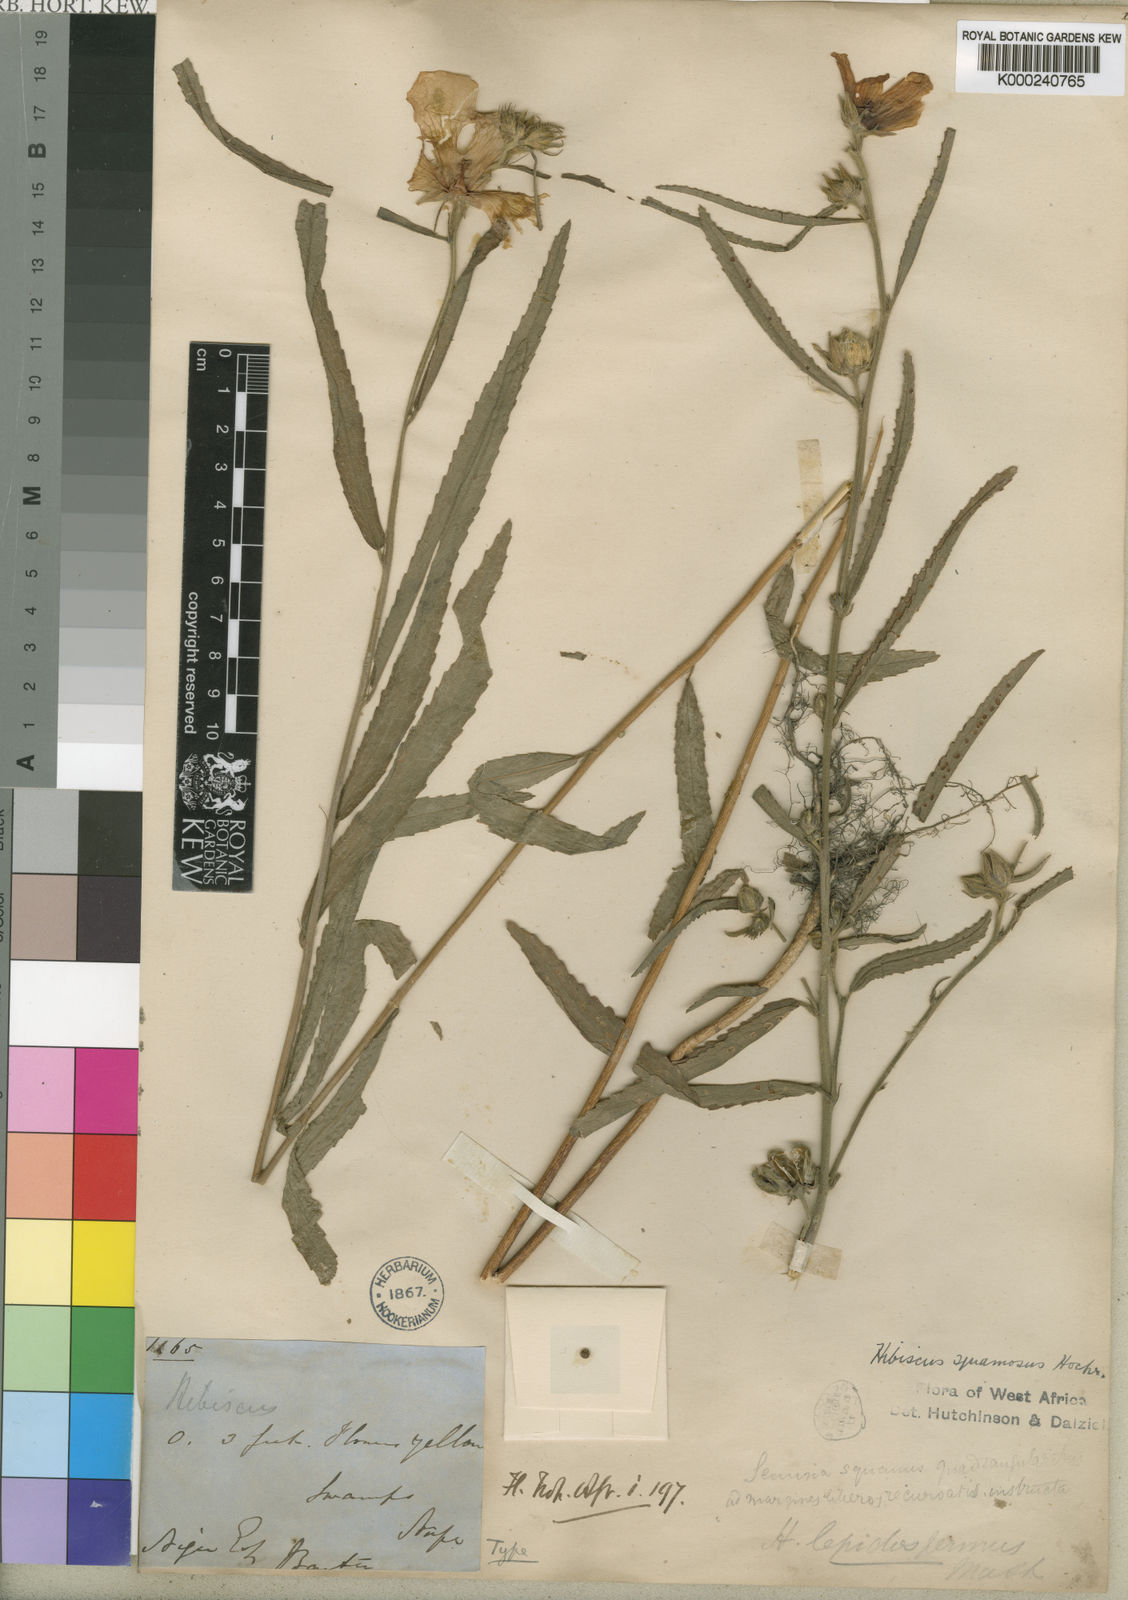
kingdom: Plantae
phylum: Tracheophyta
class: Magnoliopsida
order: Malvales
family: Malvaceae
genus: Hibiscus
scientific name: Hibiscus squamosus
